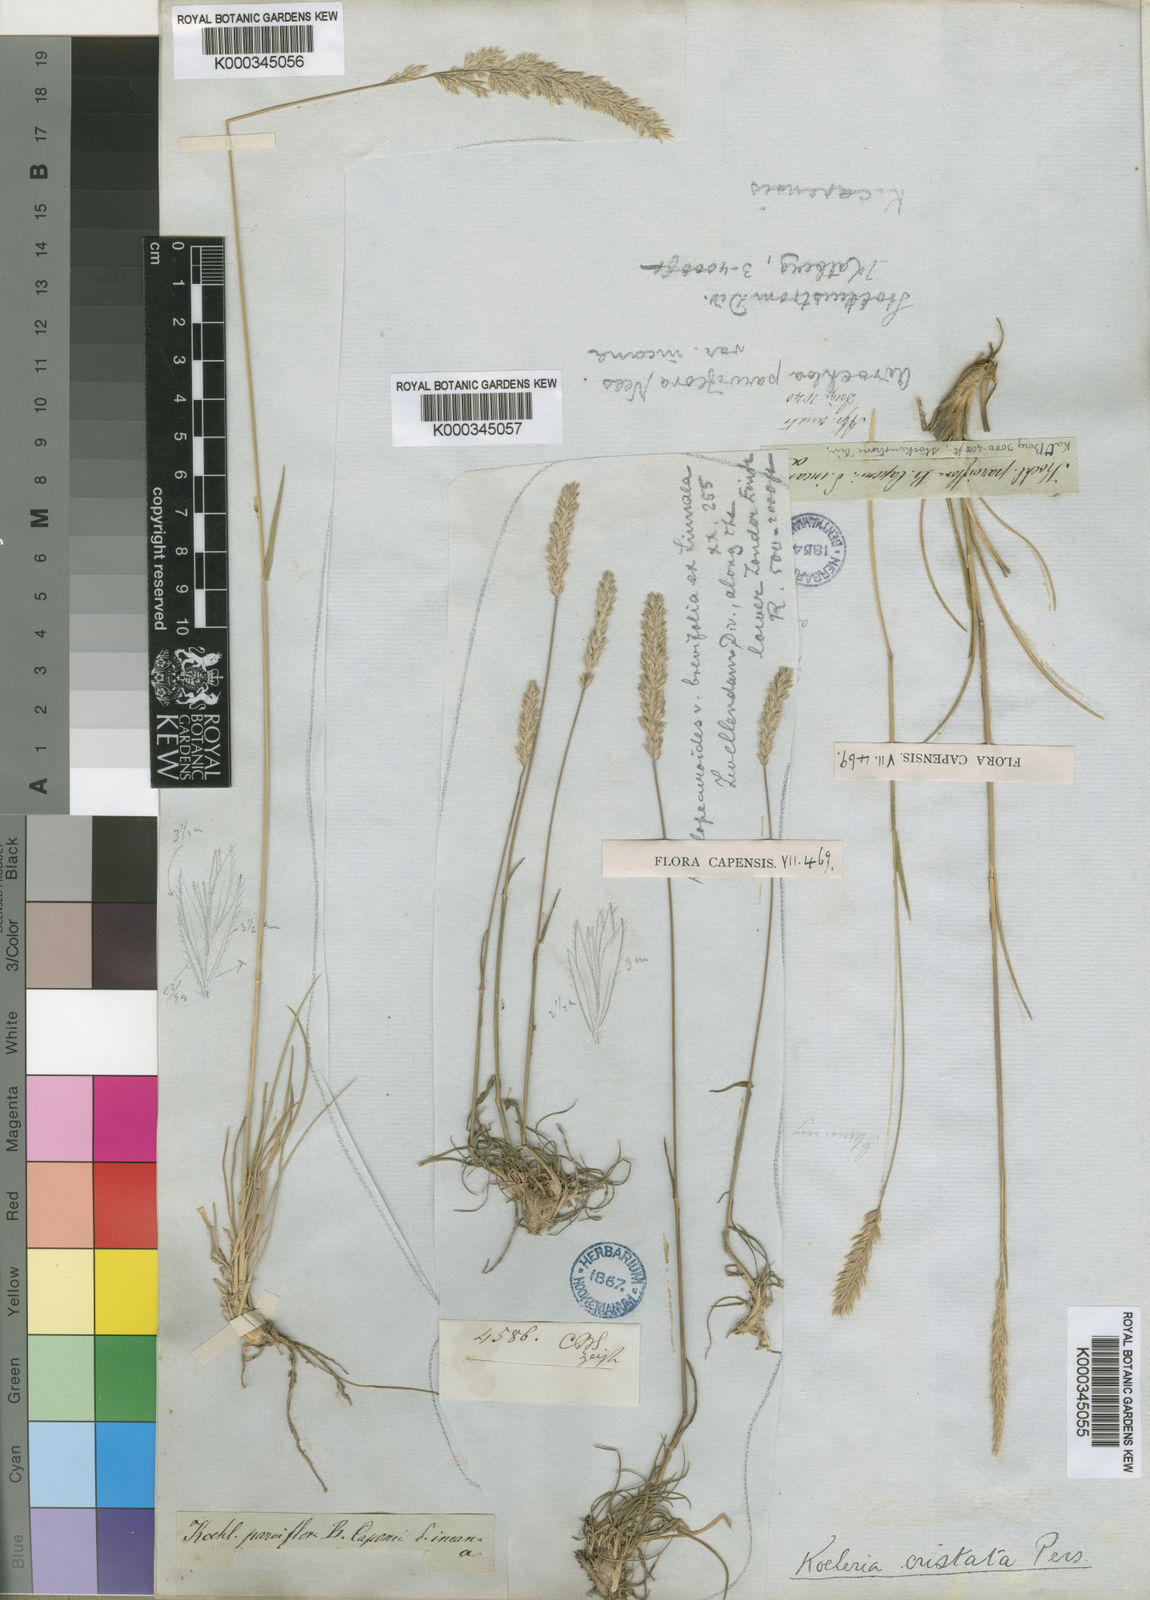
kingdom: Plantae
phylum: Tracheophyta
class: Liliopsida
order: Poales
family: Poaceae
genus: Koeleria
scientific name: Koeleria capensis
